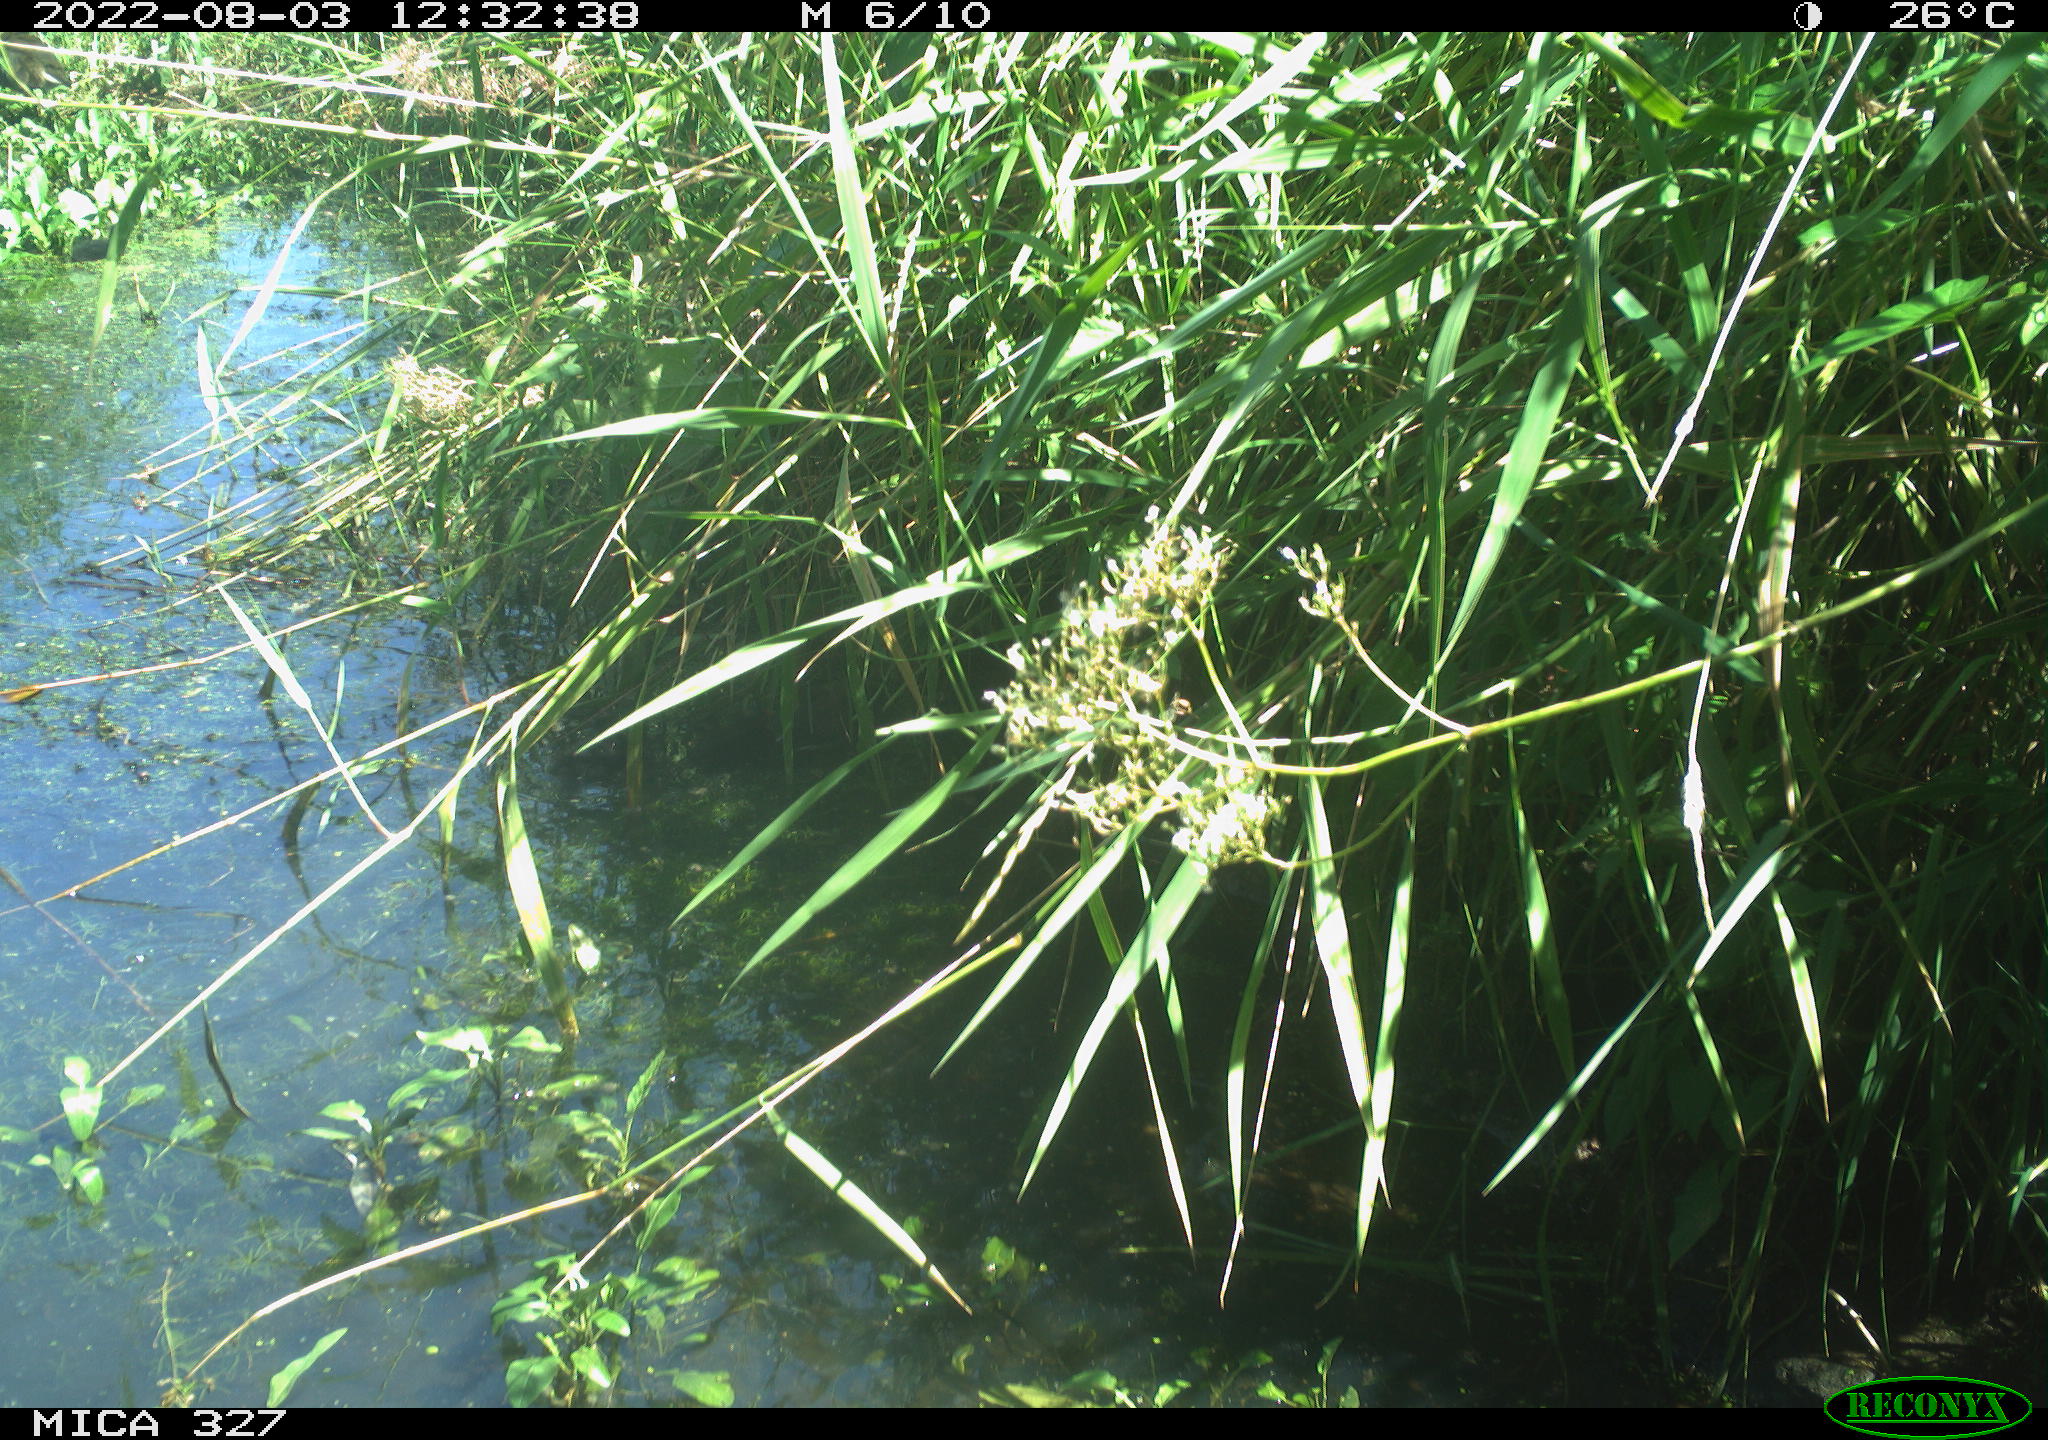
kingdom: Animalia
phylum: Chordata
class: Aves
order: Gruiformes
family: Rallidae
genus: Gallinula
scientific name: Gallinula chloropus
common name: Common moorhen
